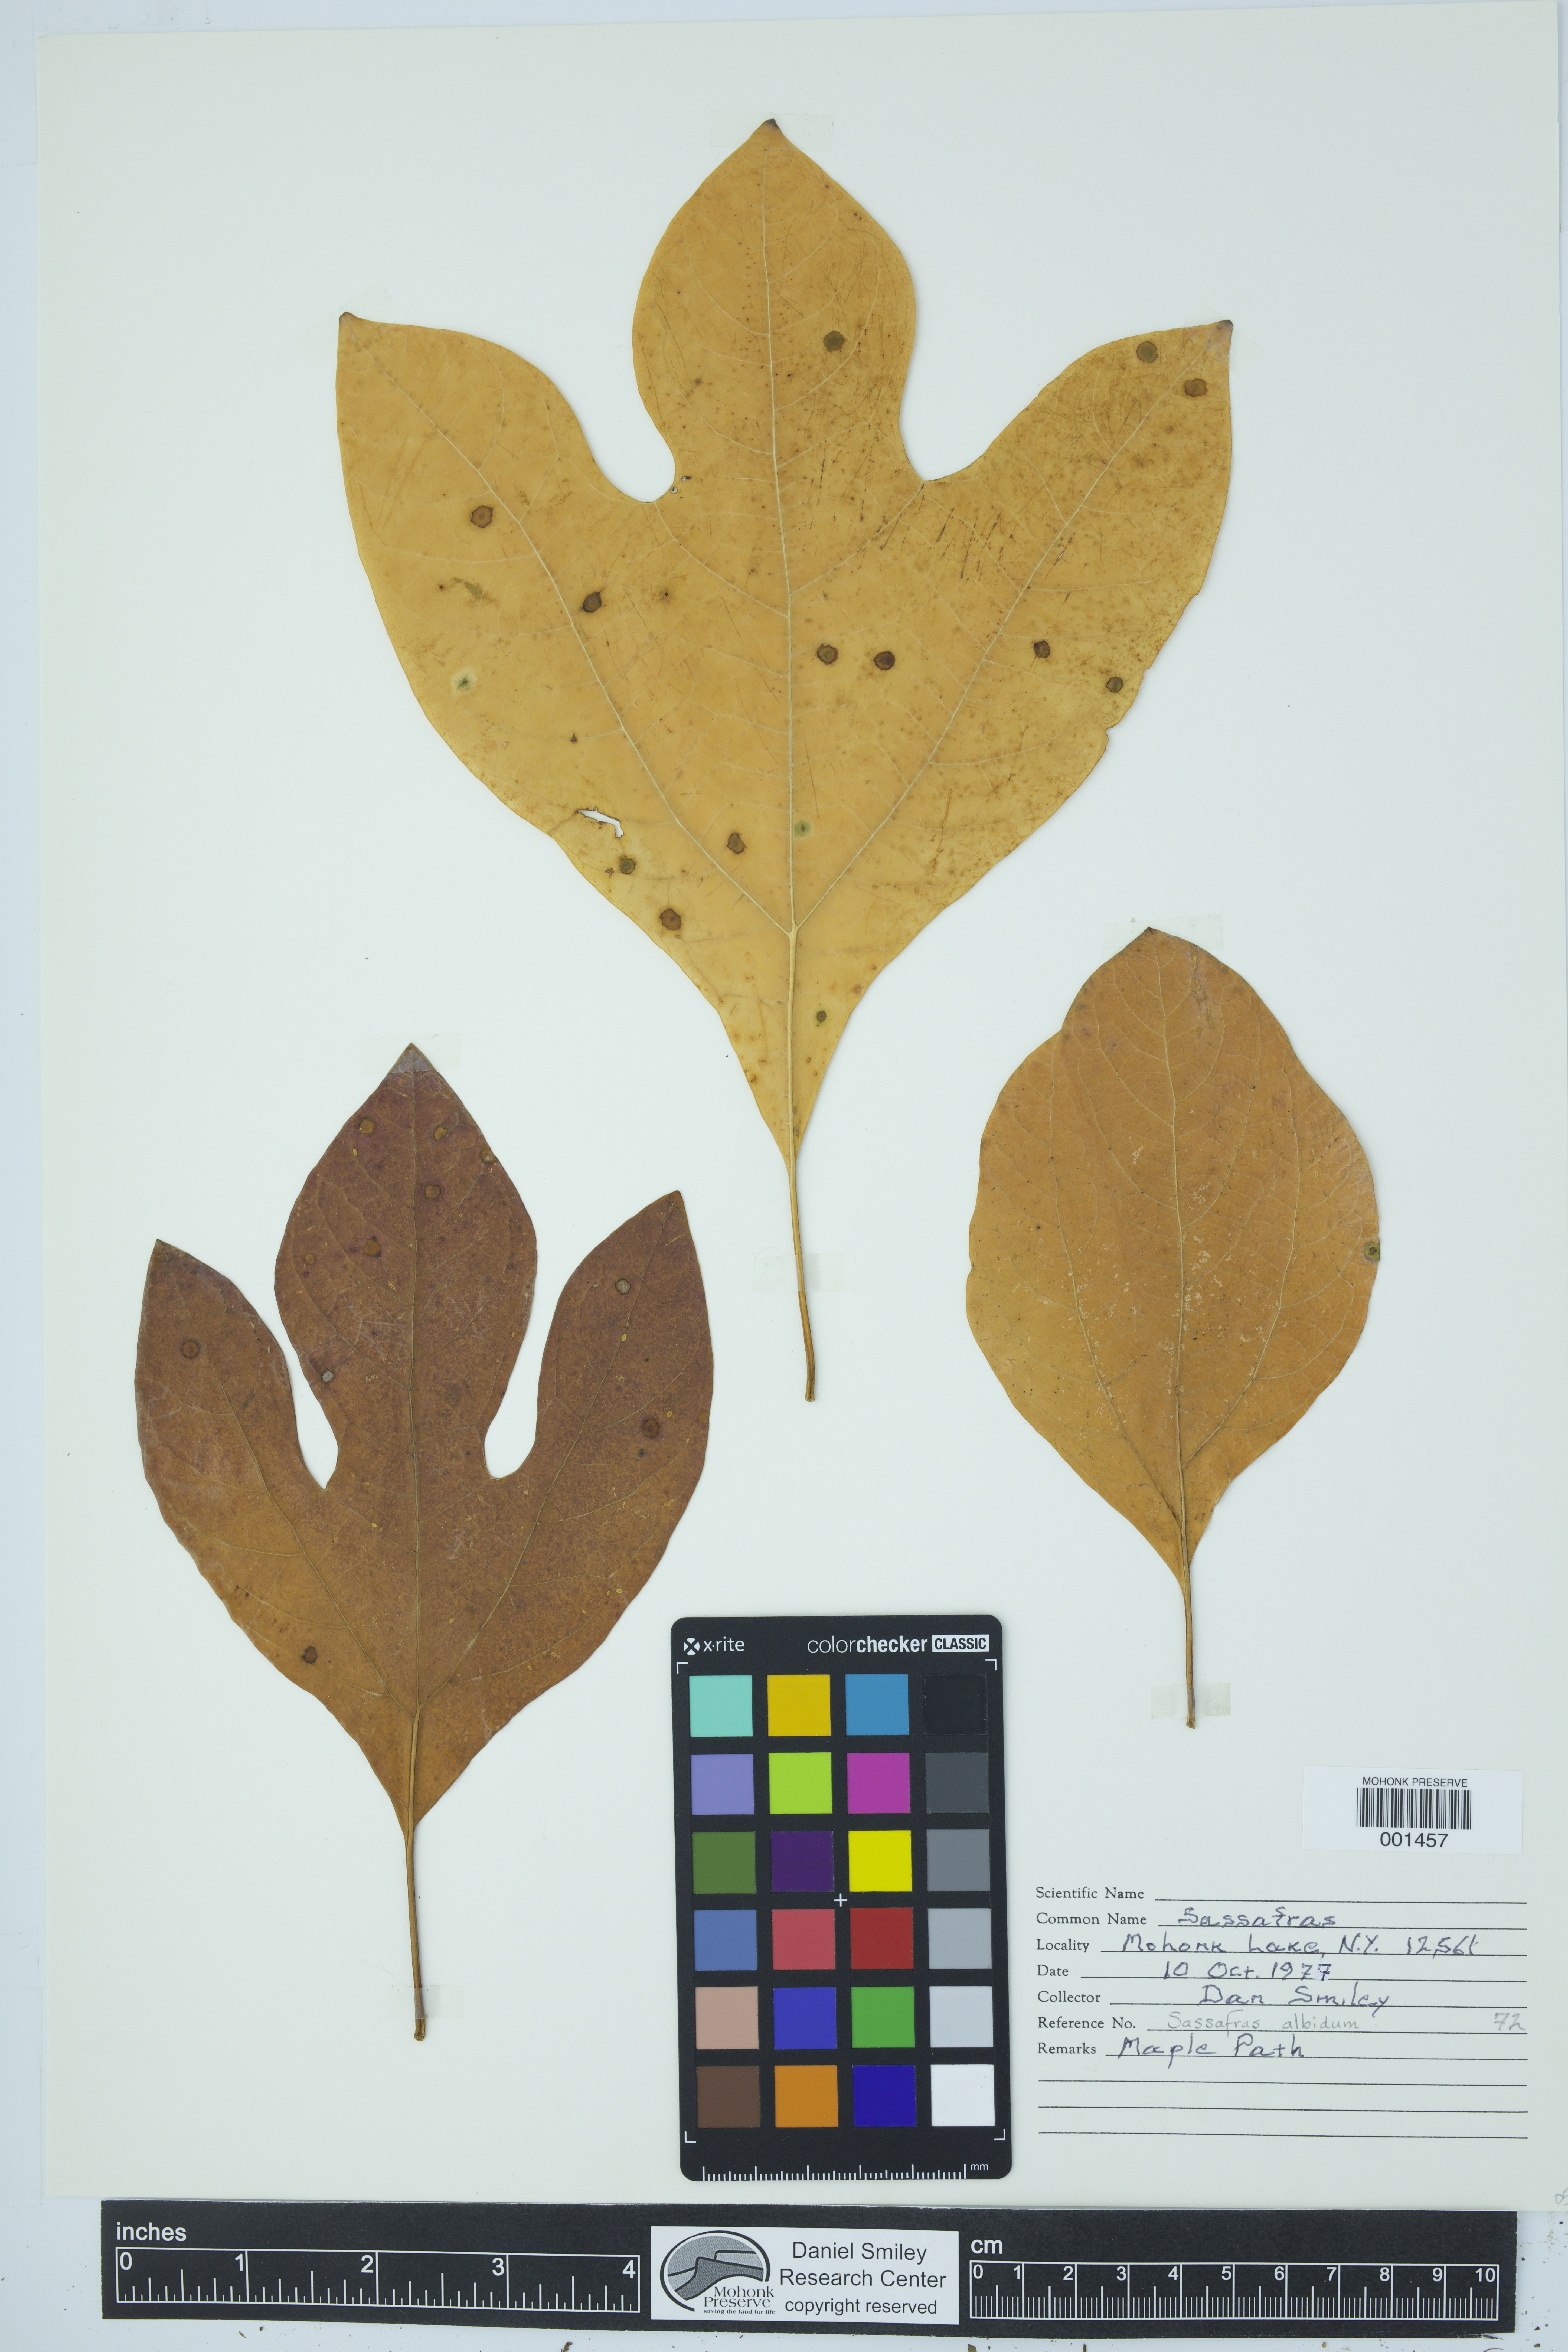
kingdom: Plantae
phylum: Tracheophyta
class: Magnoliopsida
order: Laurales
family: Lauraceae
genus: Sassafras
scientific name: Sassafras albidum
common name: Sassafras
